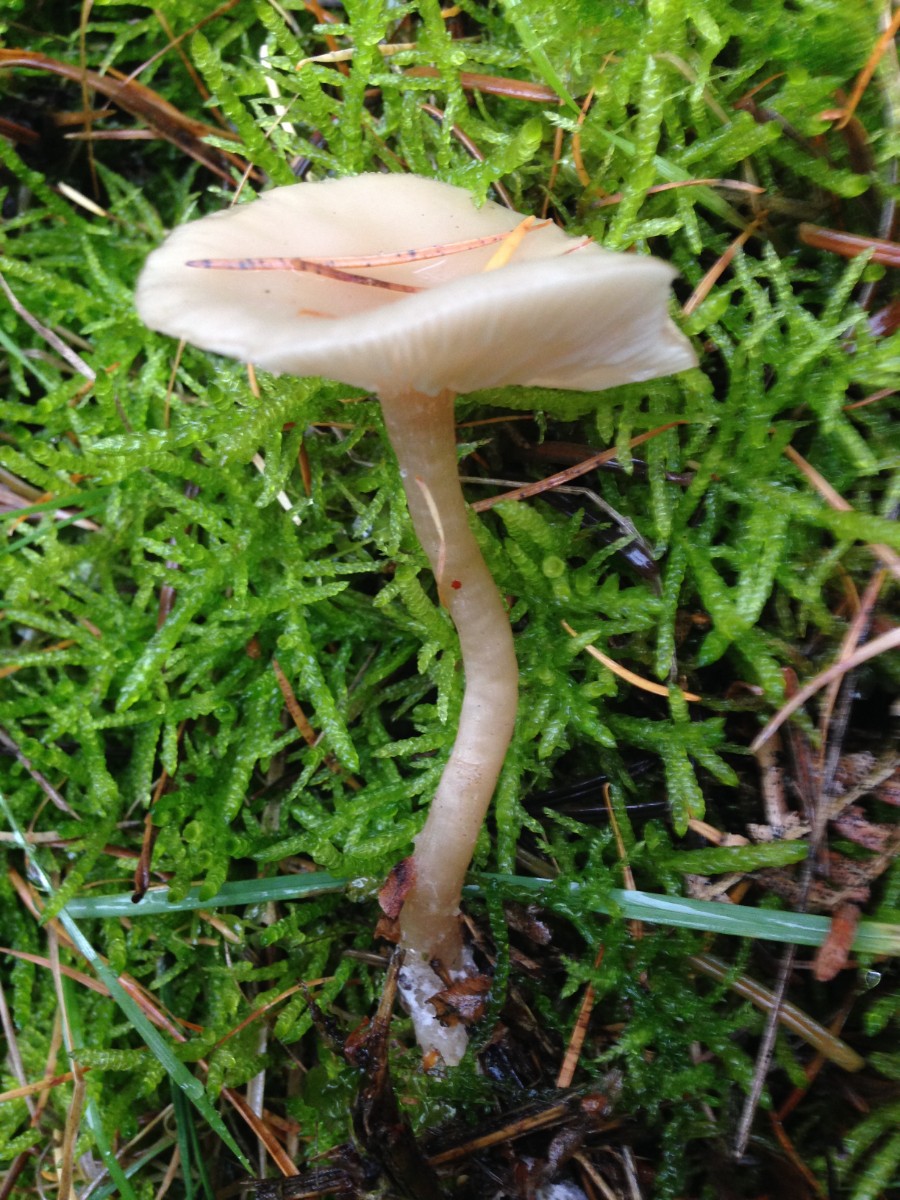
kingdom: Fungi
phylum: Basidiomycota
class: Agaricomycetes
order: Agaricales
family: Tricholomataceae
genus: Clitocybe
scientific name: Clitocybe fragrans
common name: vellugtende tragthat
